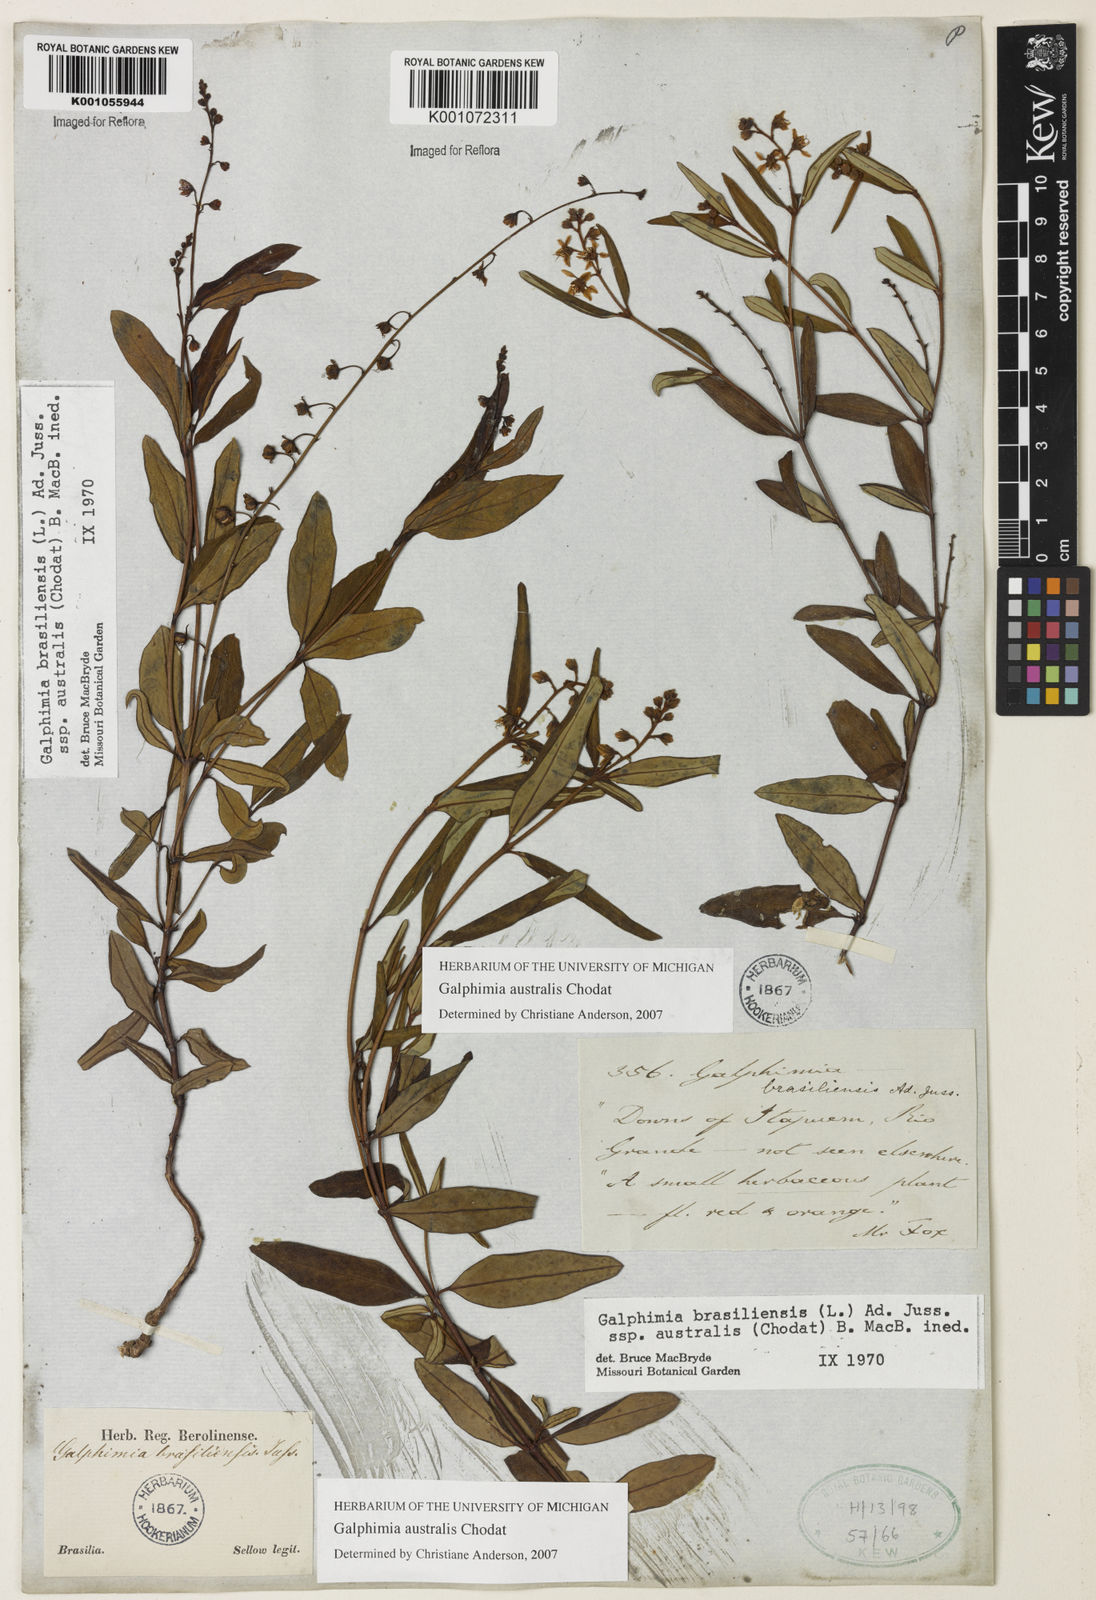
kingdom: Plantae
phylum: Tracheophyta
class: Magnoliopsida
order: Malpighiales
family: Malpighiaceae
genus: Galphimia
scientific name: Galphimia brasiliensis
